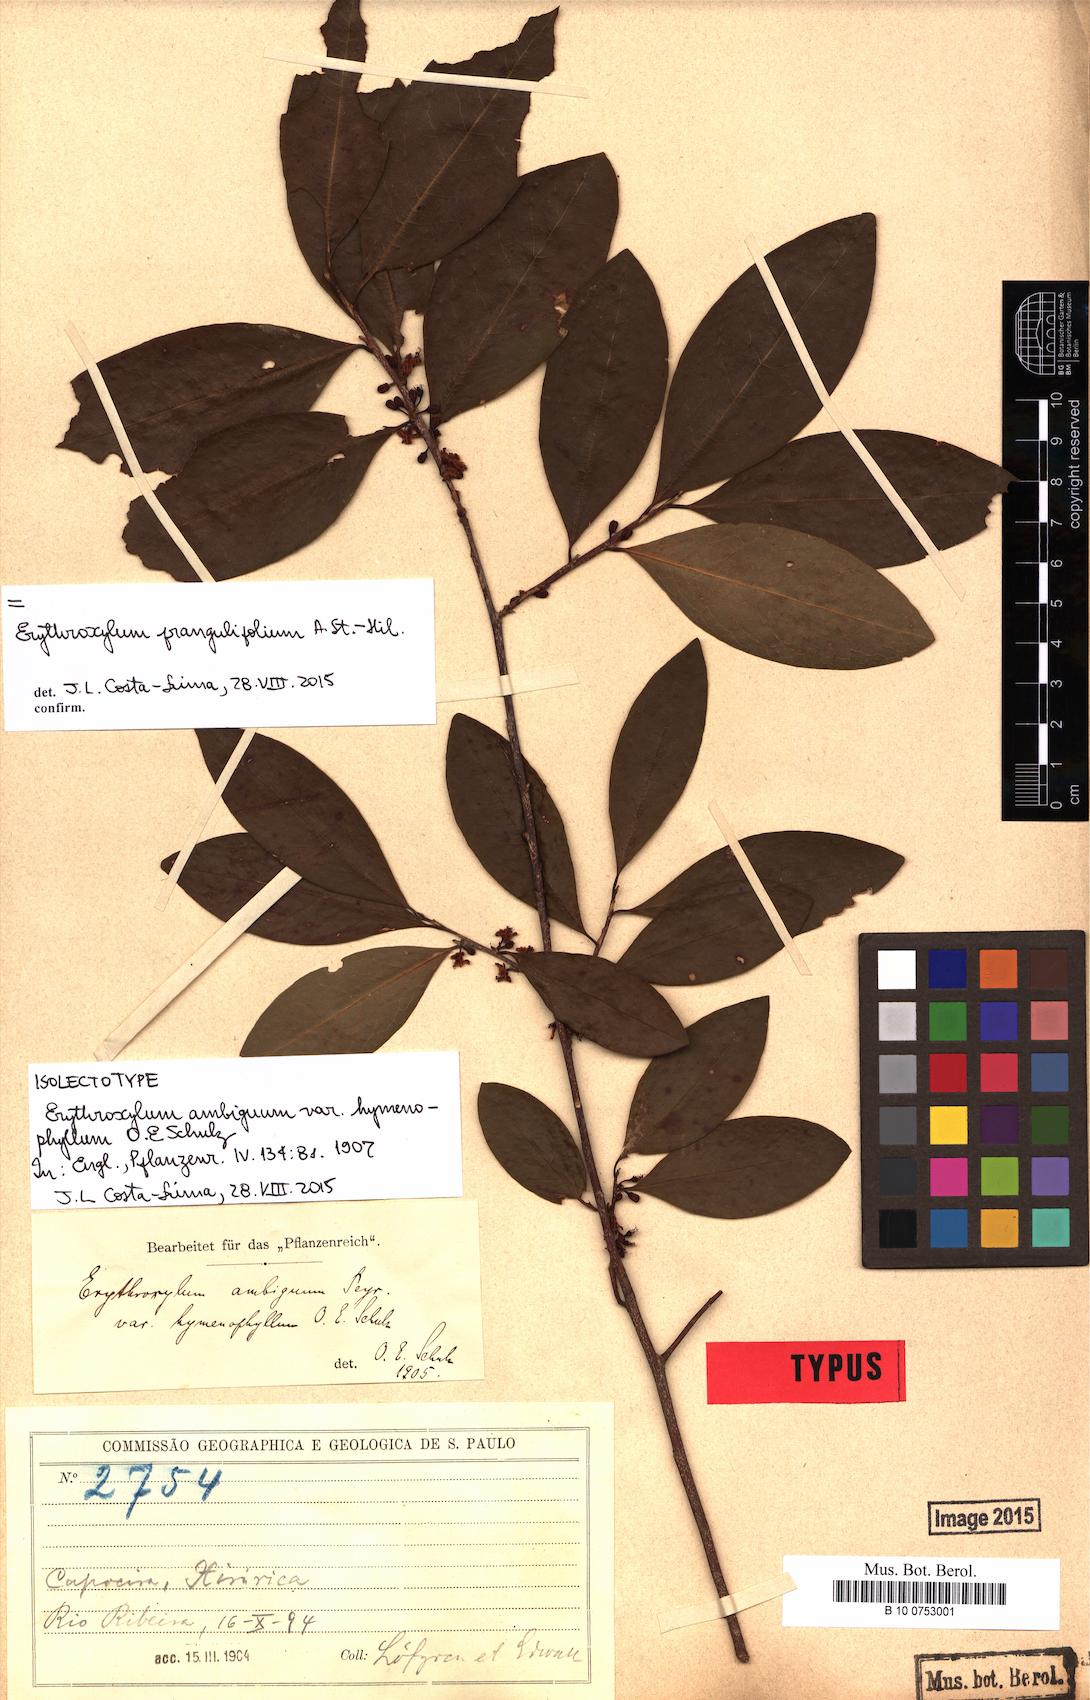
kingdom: Plantae
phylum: Tracheophyta
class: Magnoliopsida
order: Malpighiales
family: Erythroxylaceae
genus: Erythroxylum
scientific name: Erythroxylum ambiguum
